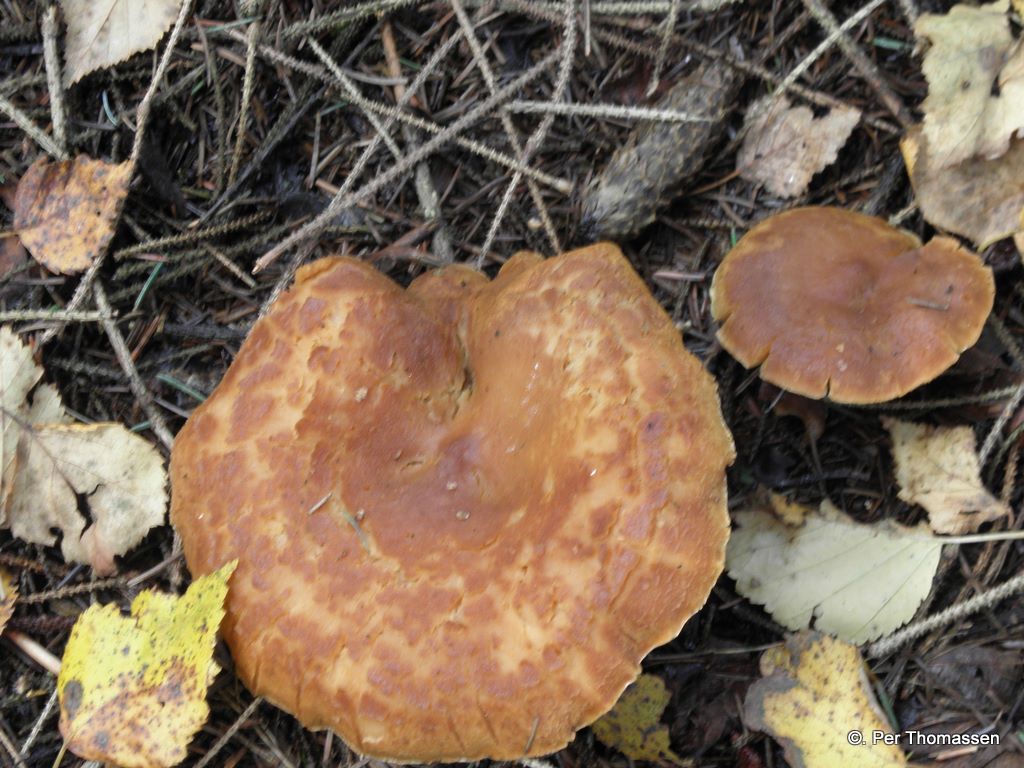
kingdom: Fungi
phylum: Basidiomycota
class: Agaricomycetes
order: Russulales
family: Russulaceae
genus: Lactarius
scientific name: Lactarius helvus
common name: mose-mælkehat
